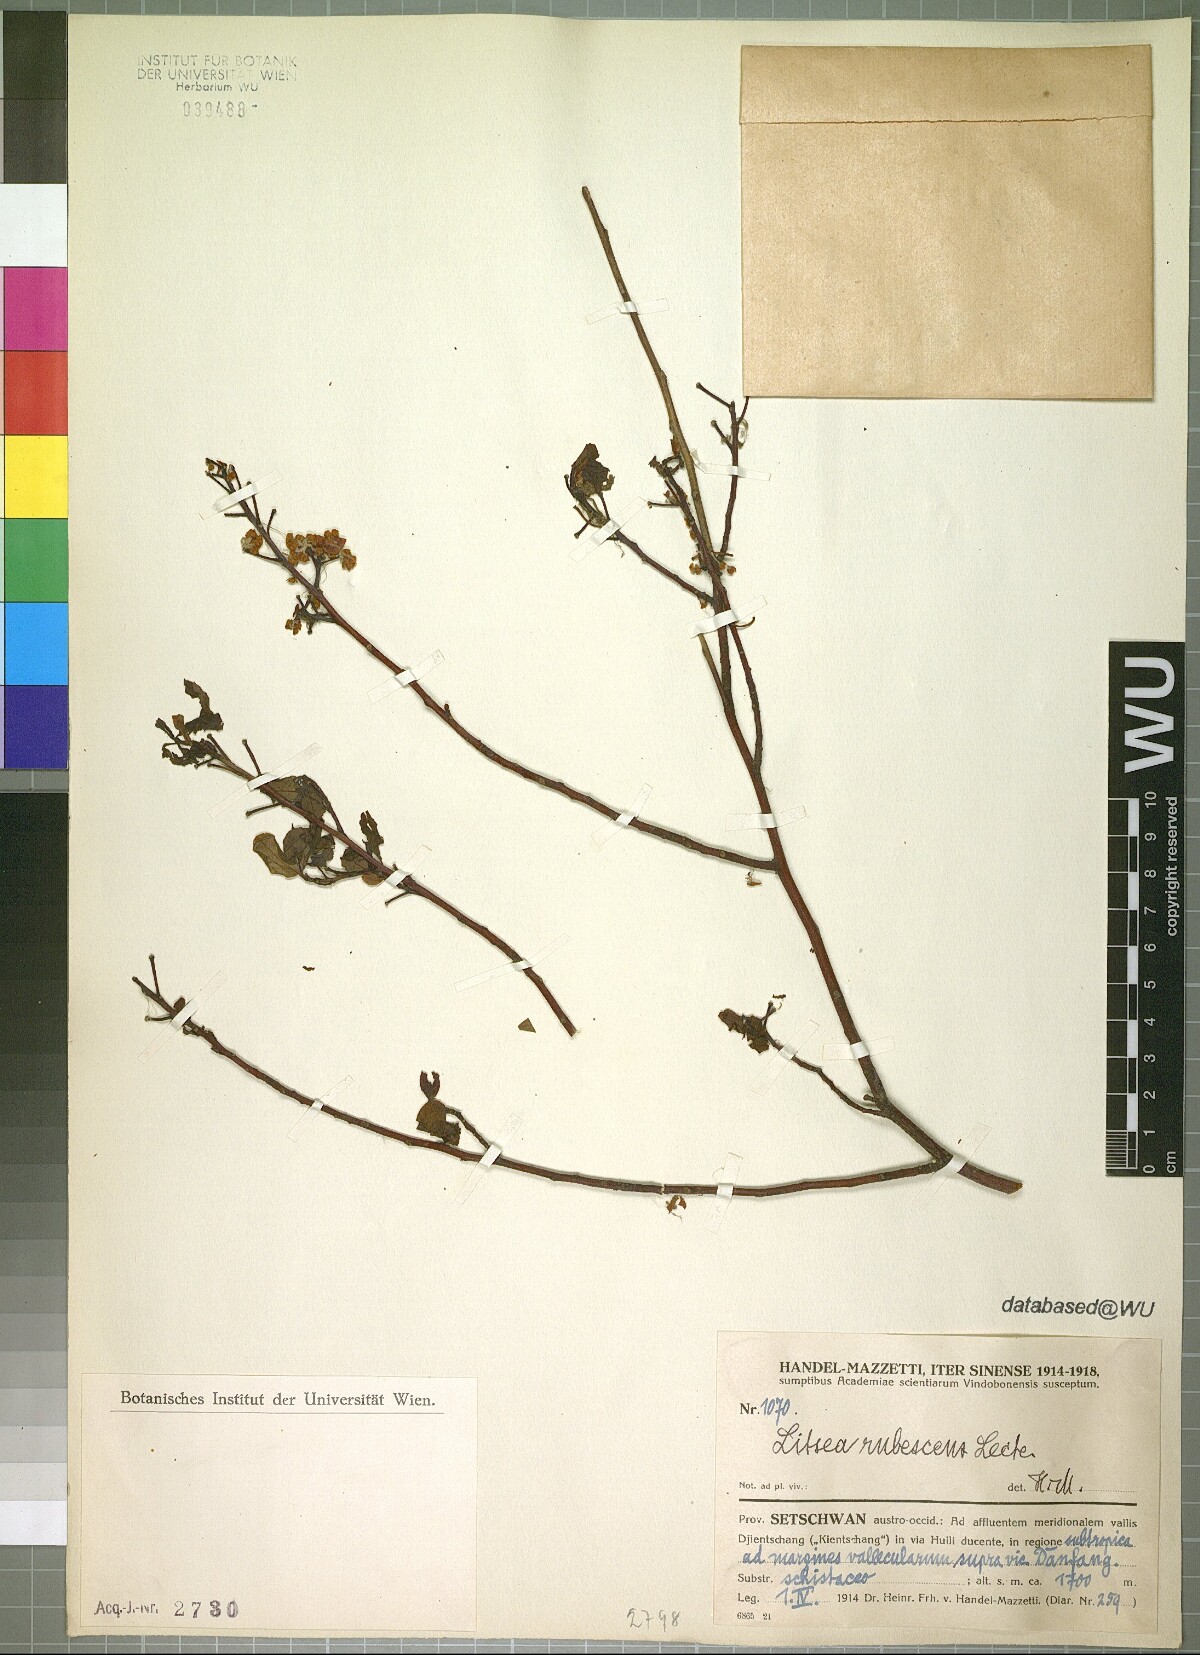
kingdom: Plantae
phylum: Tracheophyta
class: Magnoliopsida
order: Laurales
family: Lauraceae
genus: Litsea
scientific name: Litsea rubescens
